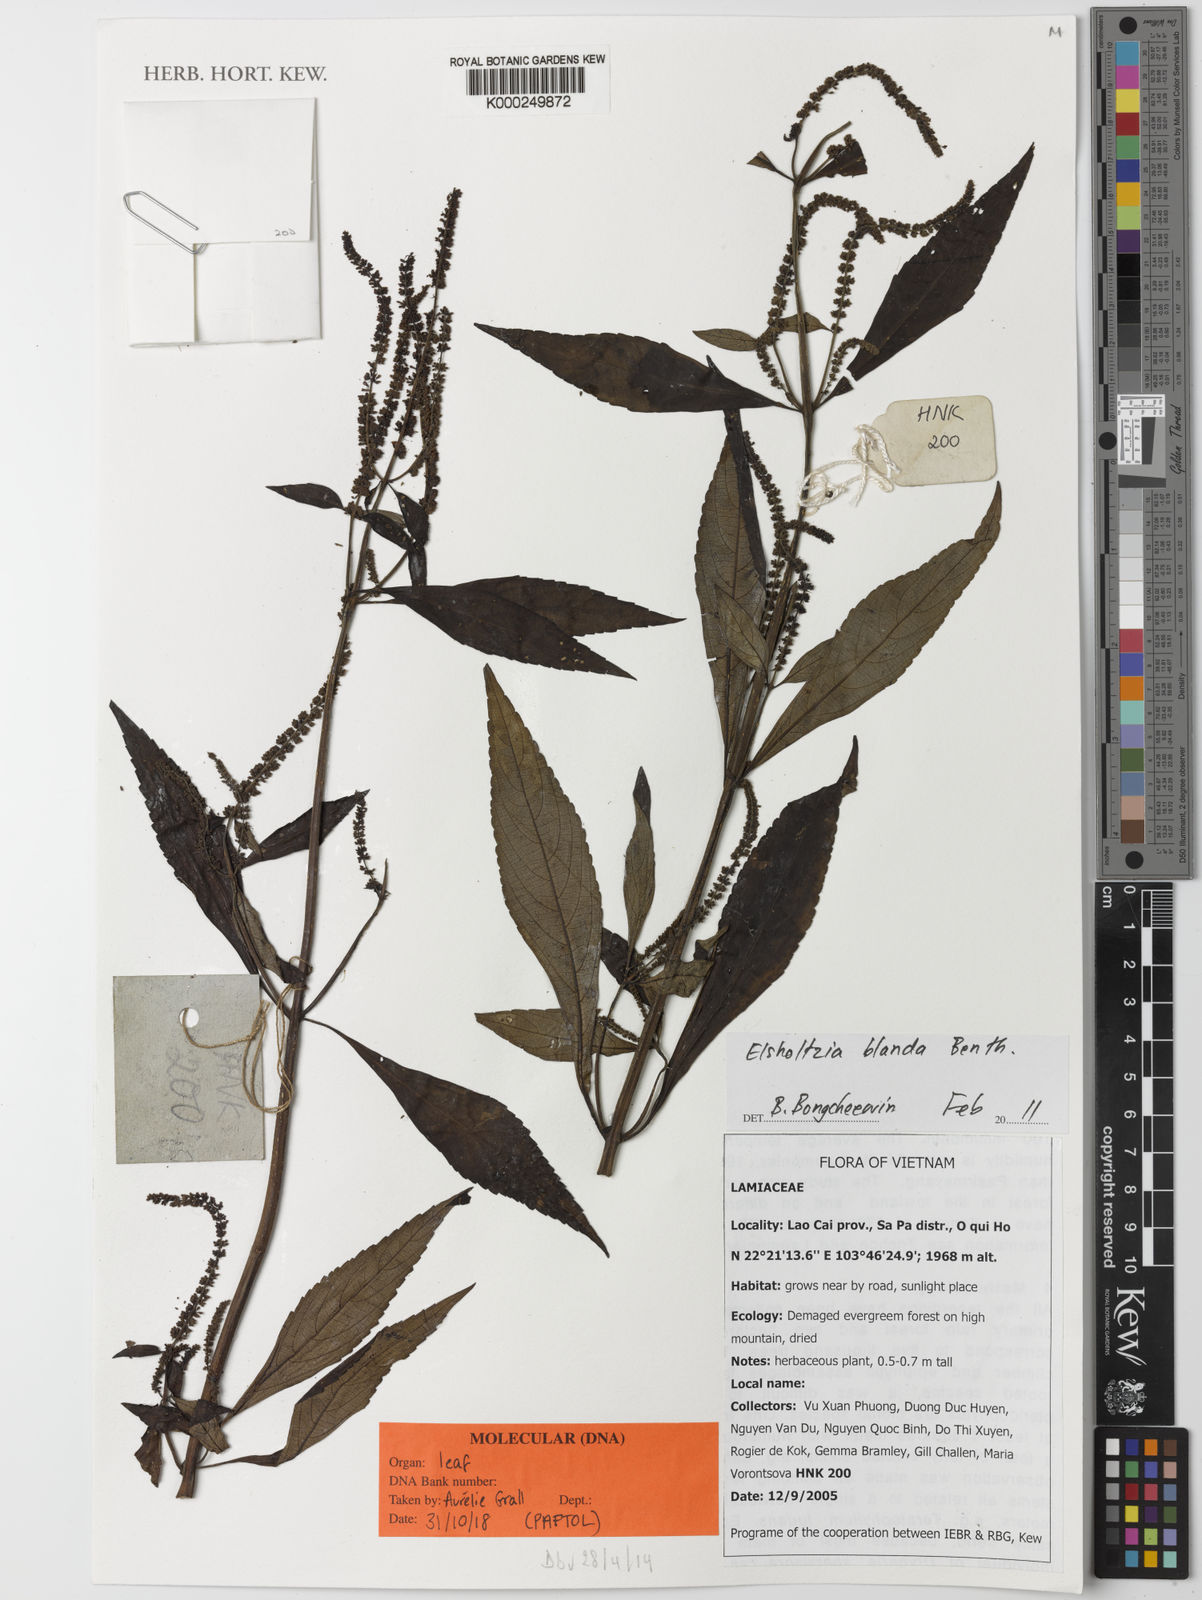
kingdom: Plantae
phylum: Tracheophyta
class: Magnoliopsida
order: Lamiales
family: Lamiaceae
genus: Elsholtzia
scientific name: Elsholtzia blanda
